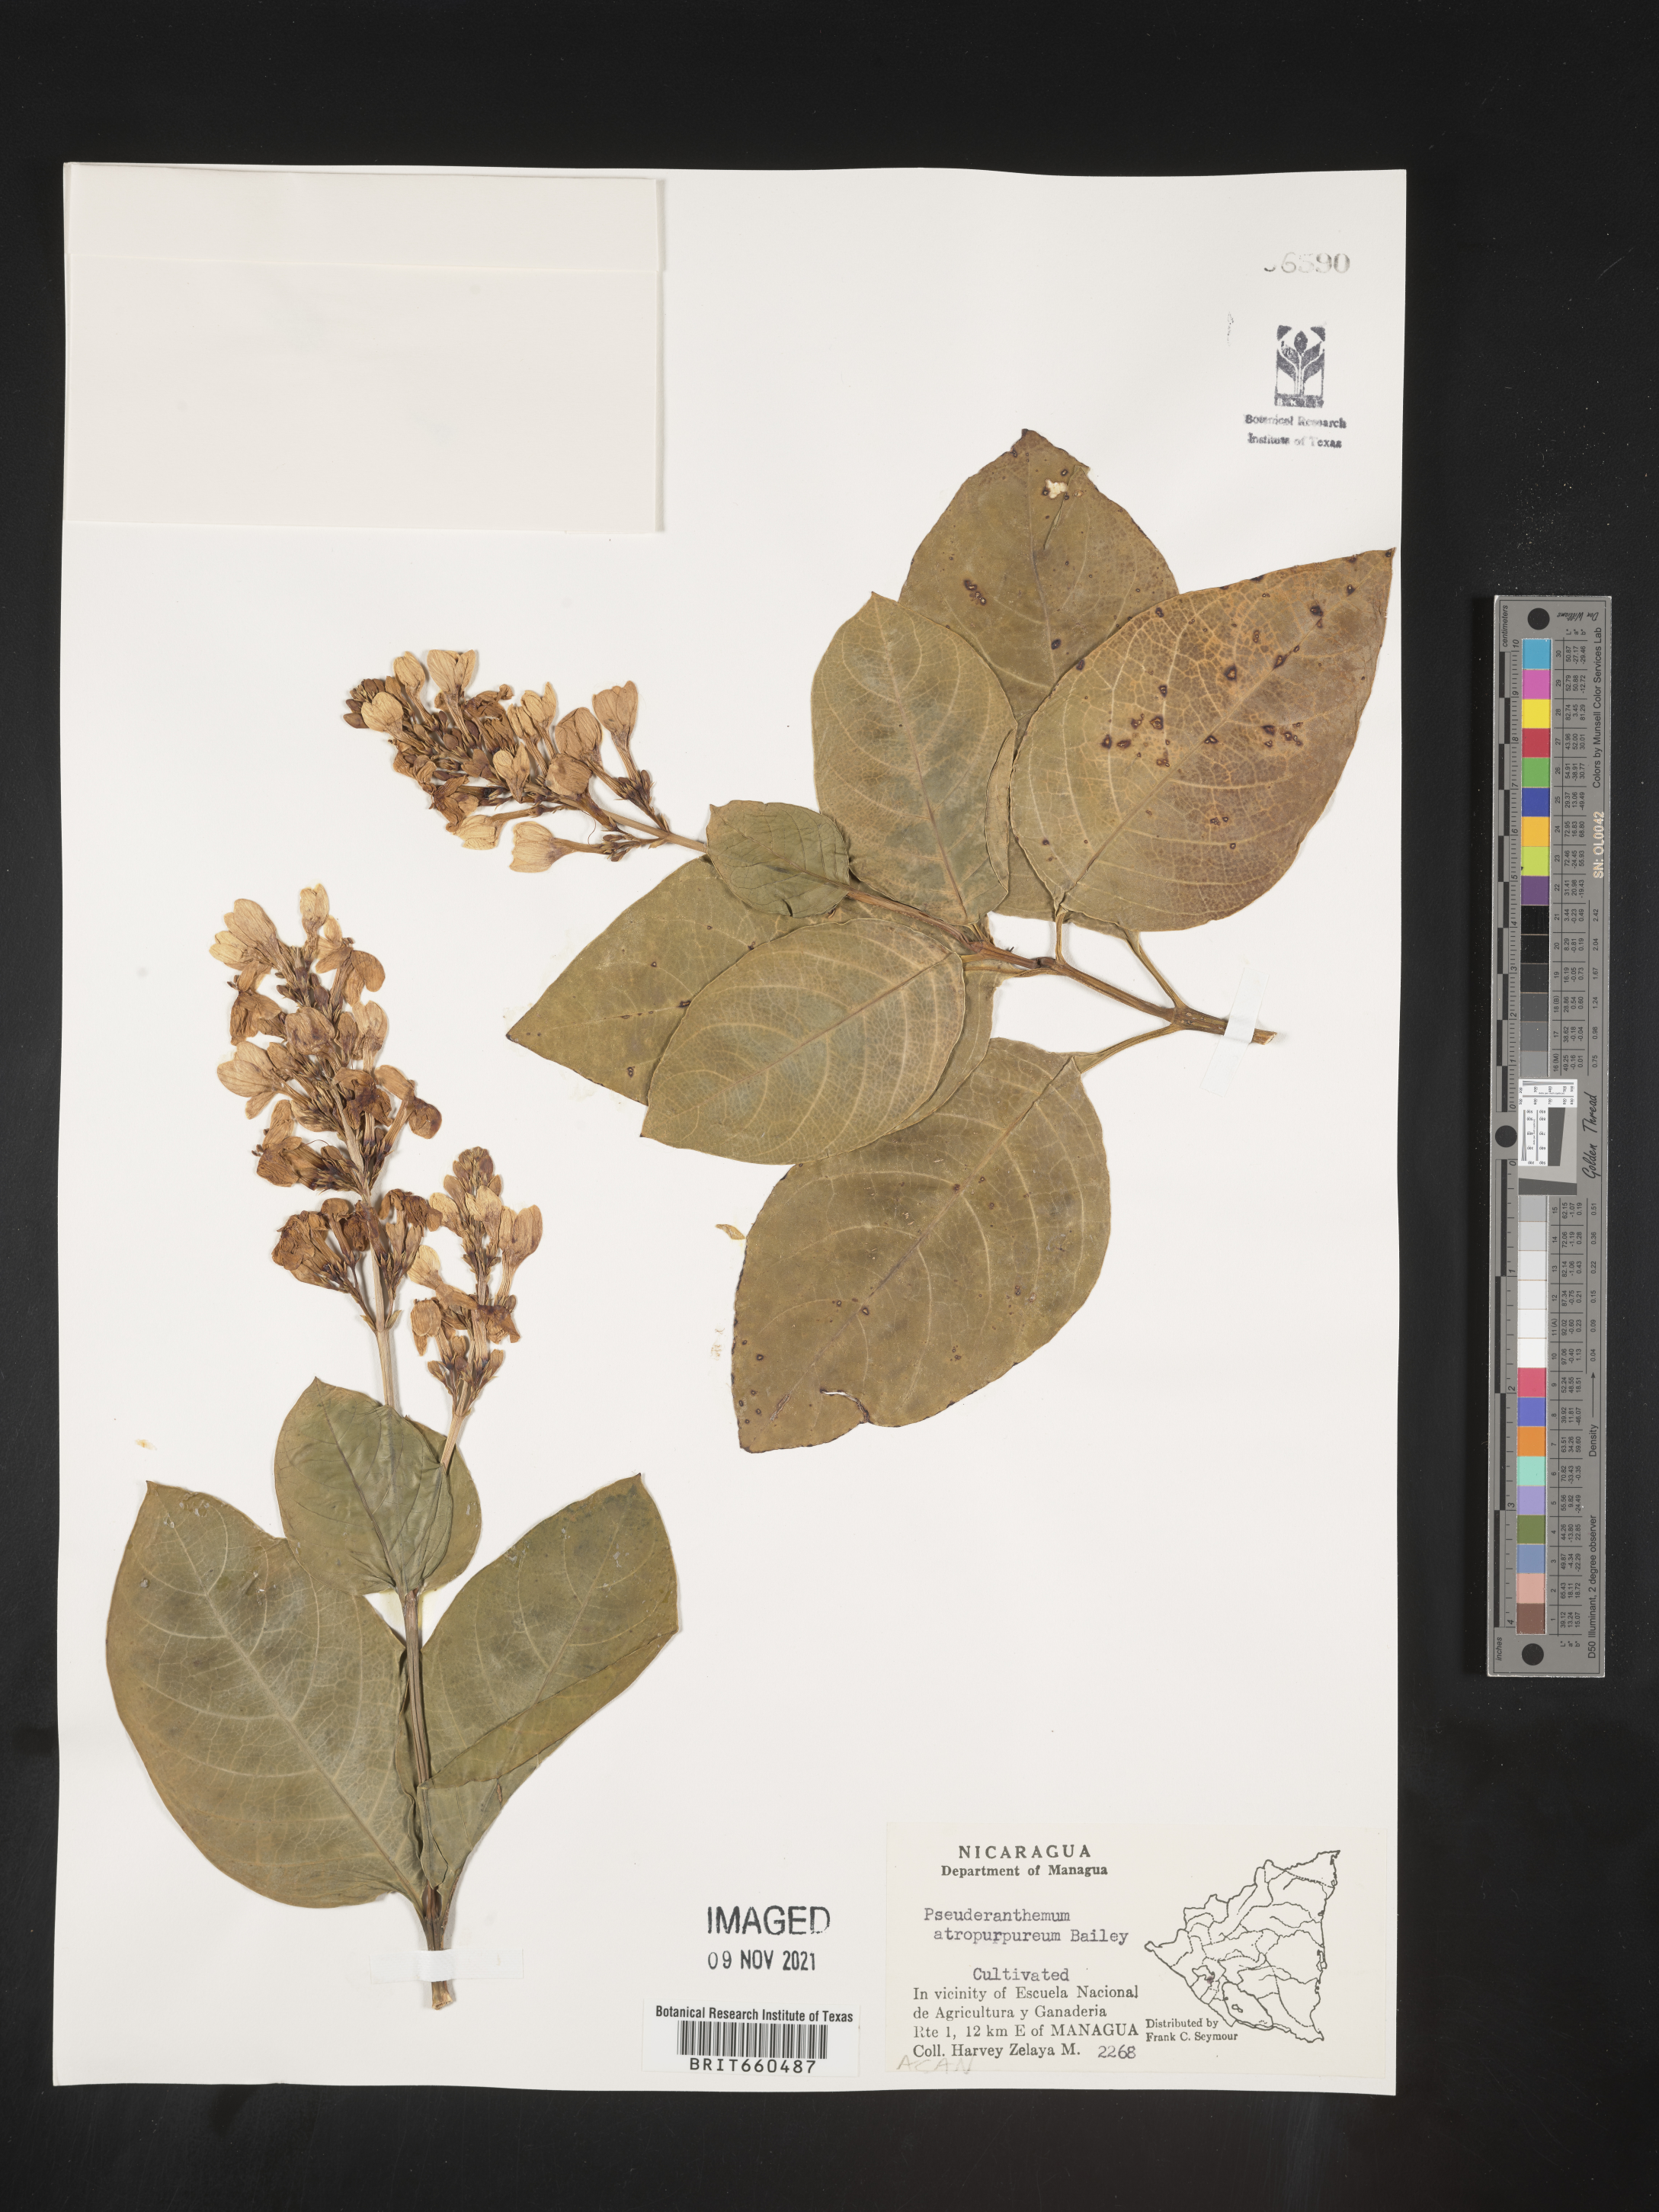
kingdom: Plantae
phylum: Tracheophyta
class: Magnoliopsida
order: Lamiales
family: Acanthaceae
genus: Pseuderanthemum
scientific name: Pseuderanthemum
